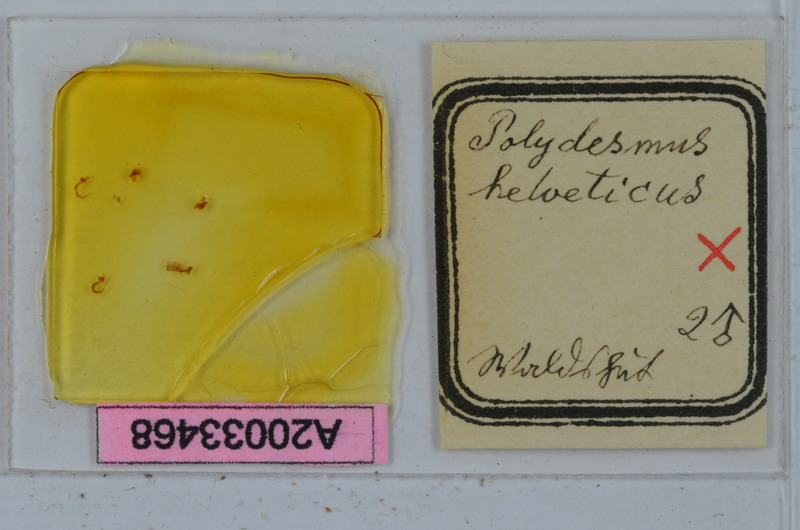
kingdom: Animalia
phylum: Arthropoda
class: Diplopoda
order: Polydesmida
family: Polydesmidae
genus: Propolydesmus
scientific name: Propolydesmus helveticus
